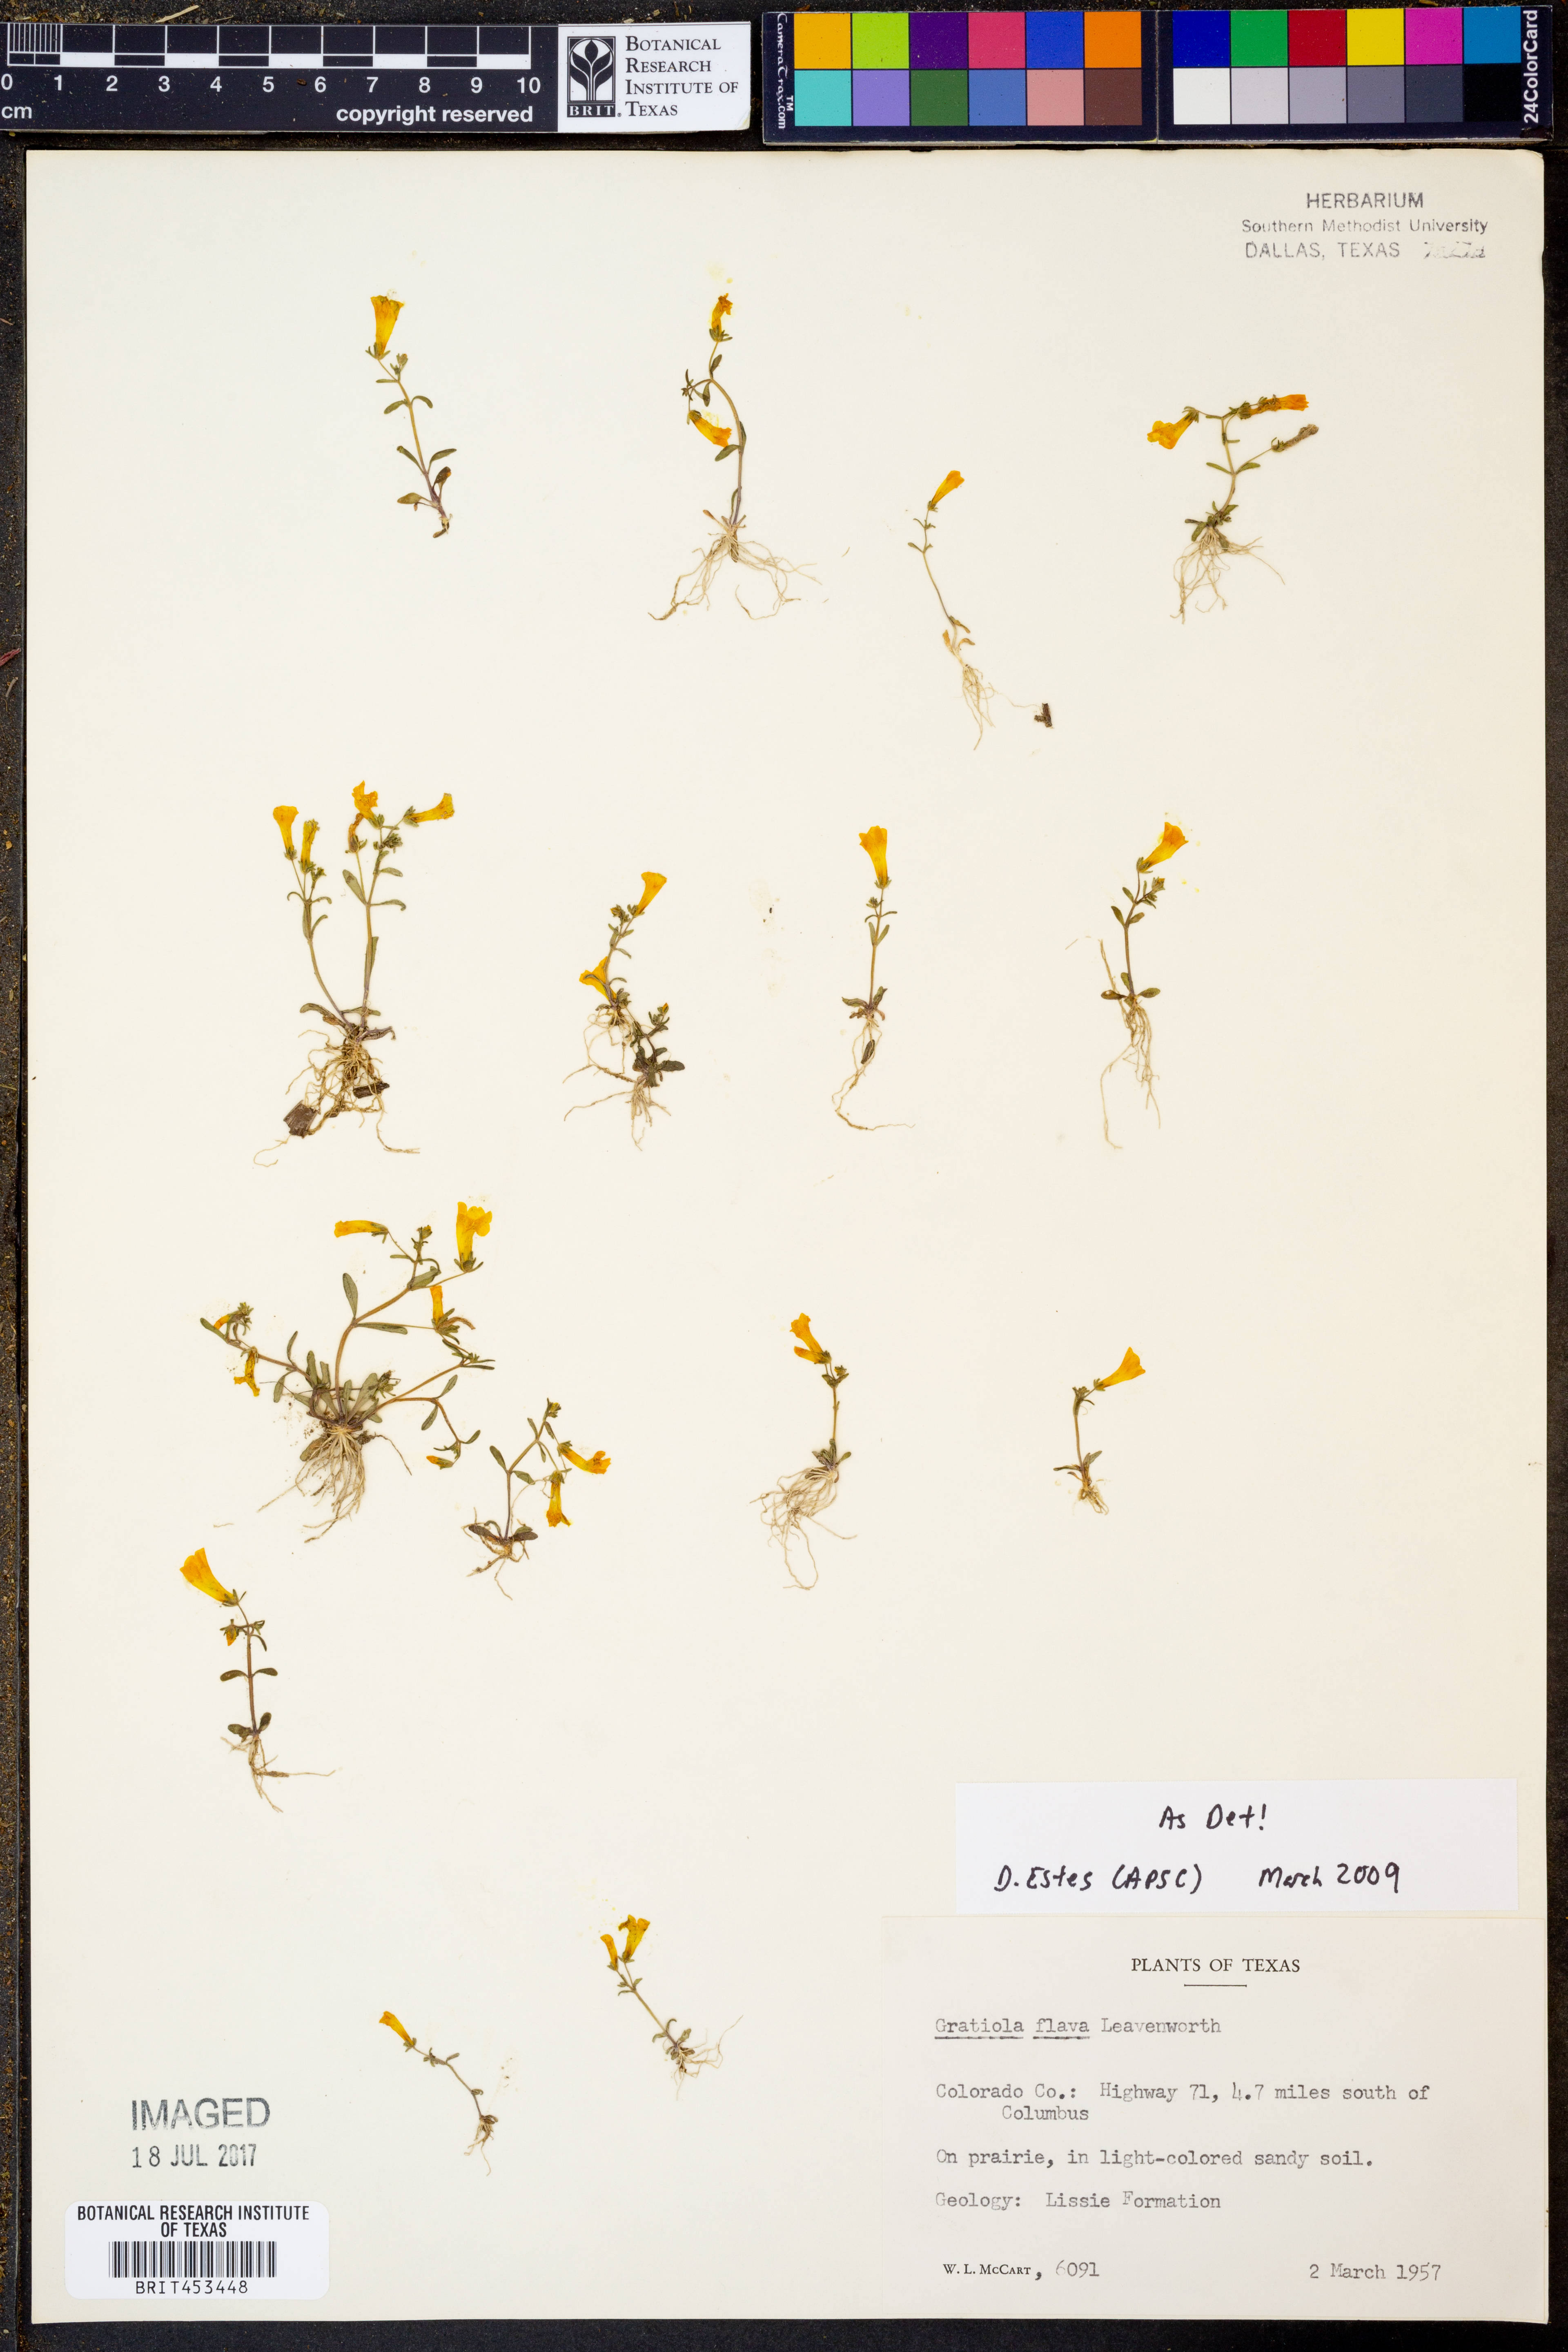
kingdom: Plantae
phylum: Tracheophyta
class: Magnoliopsida
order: Lamiales
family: Plantaginaceae
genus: Gratiola
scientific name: Gratiola flava
